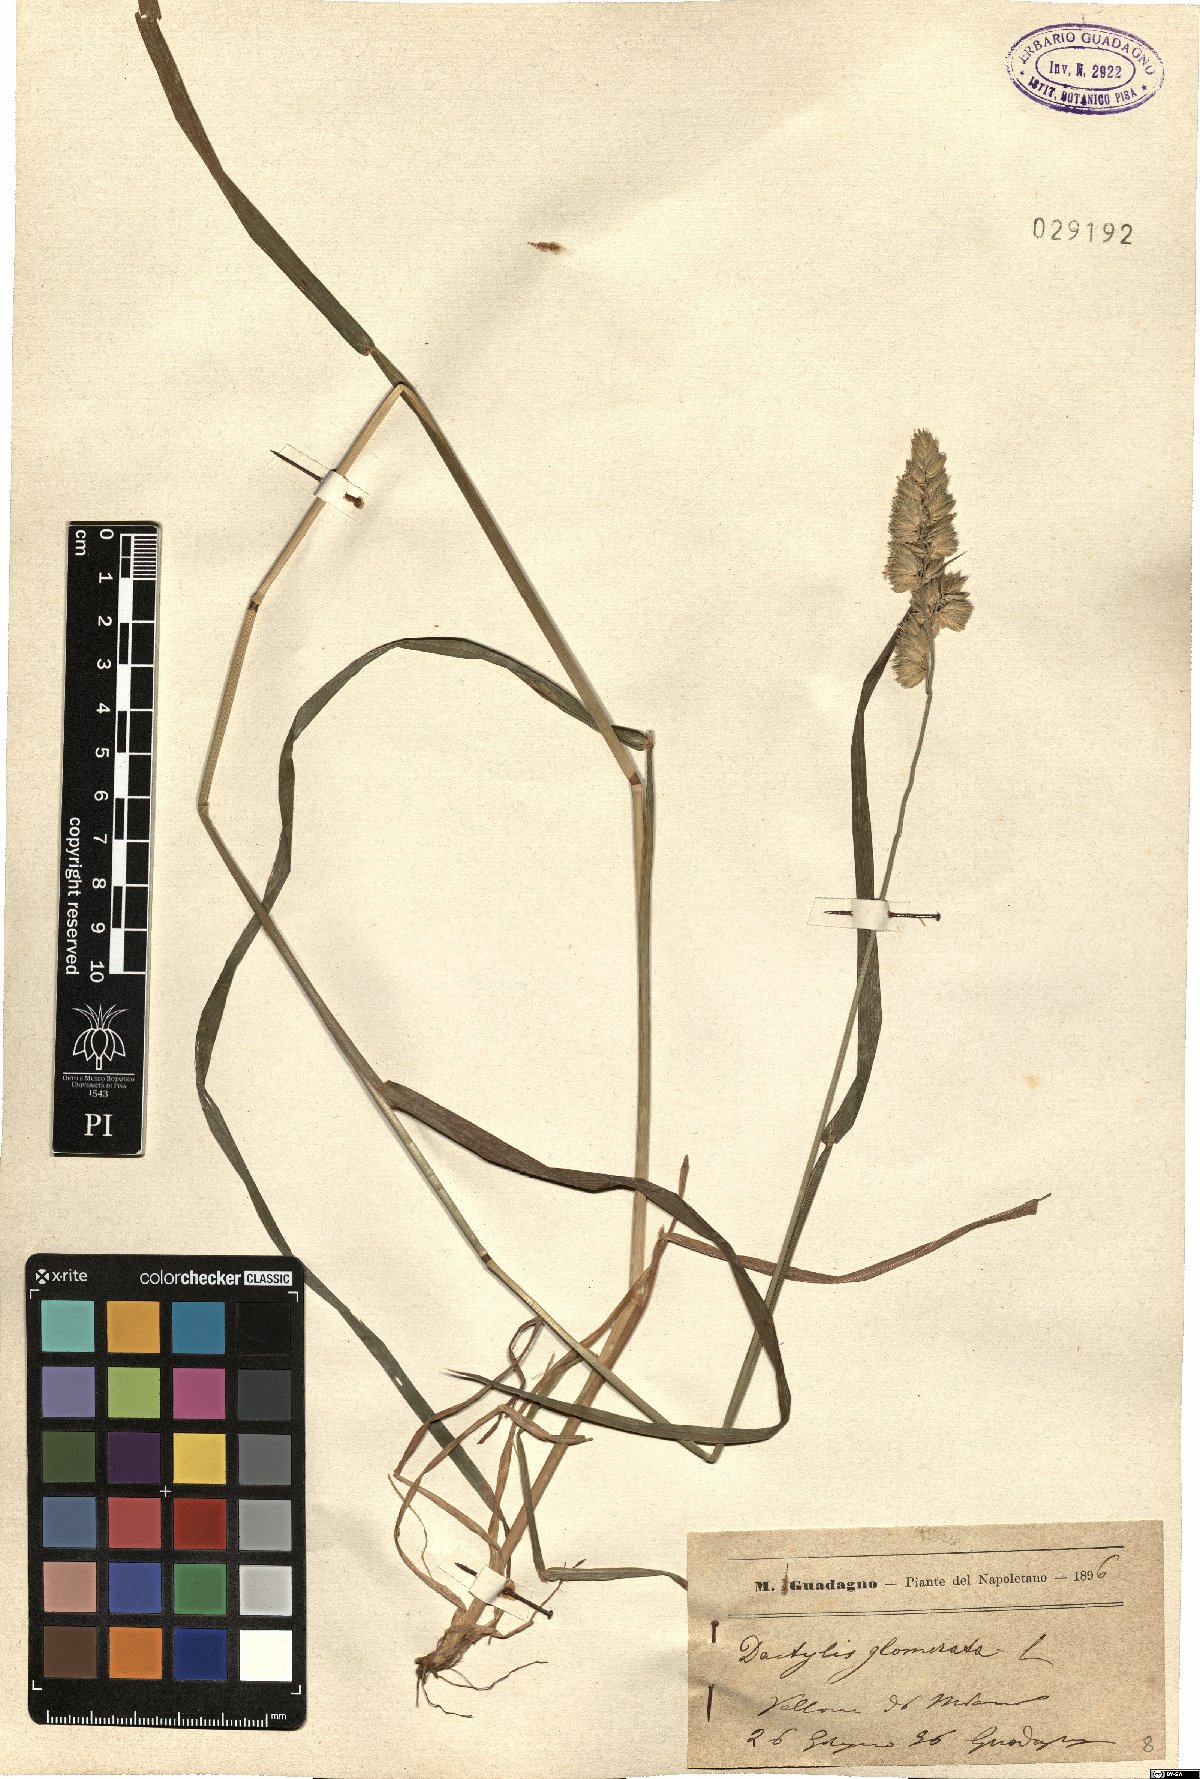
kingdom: Plantae
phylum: Tracheophyta
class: Liliopsida
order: Poales
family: Poaceae
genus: Dactylis
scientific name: Dactylis glomerata
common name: Orchardgrass
